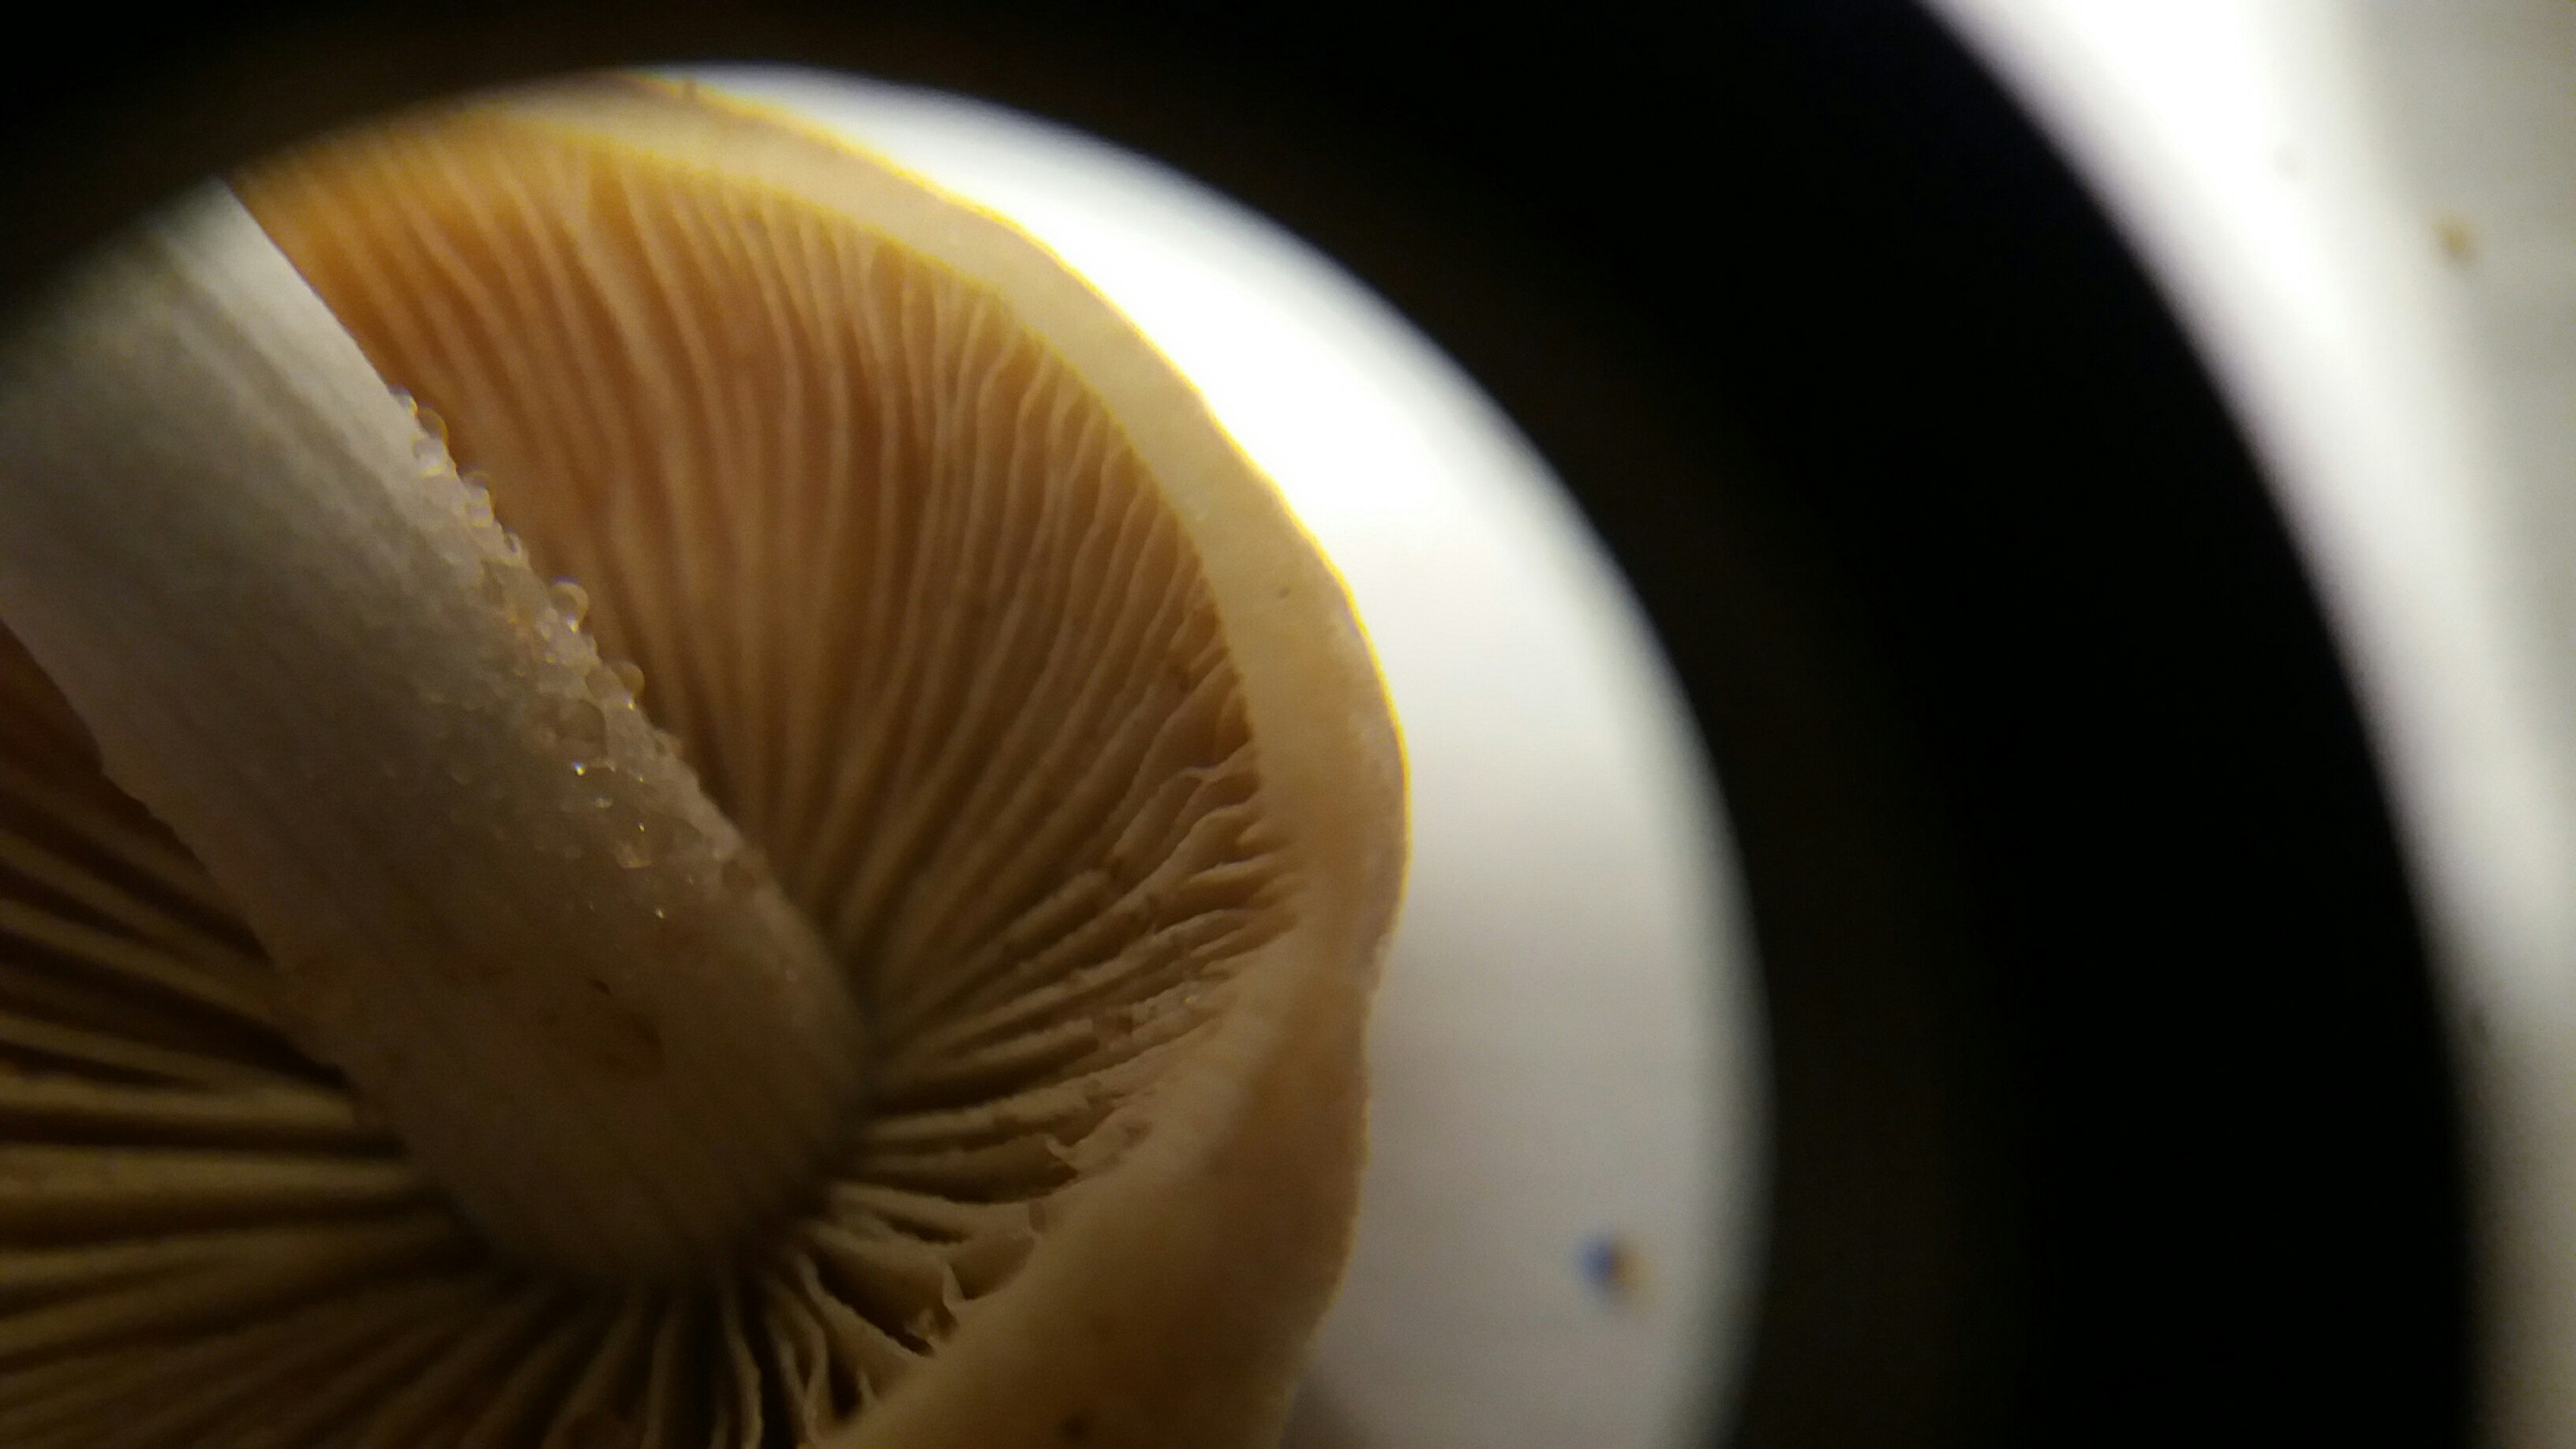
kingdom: Fungi
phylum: Basidiomycota
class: Agaricomycetes
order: Agaricales
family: Bolbitiaceae
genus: Conocybe
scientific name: Conocybe striipes
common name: knippe-dansehat
